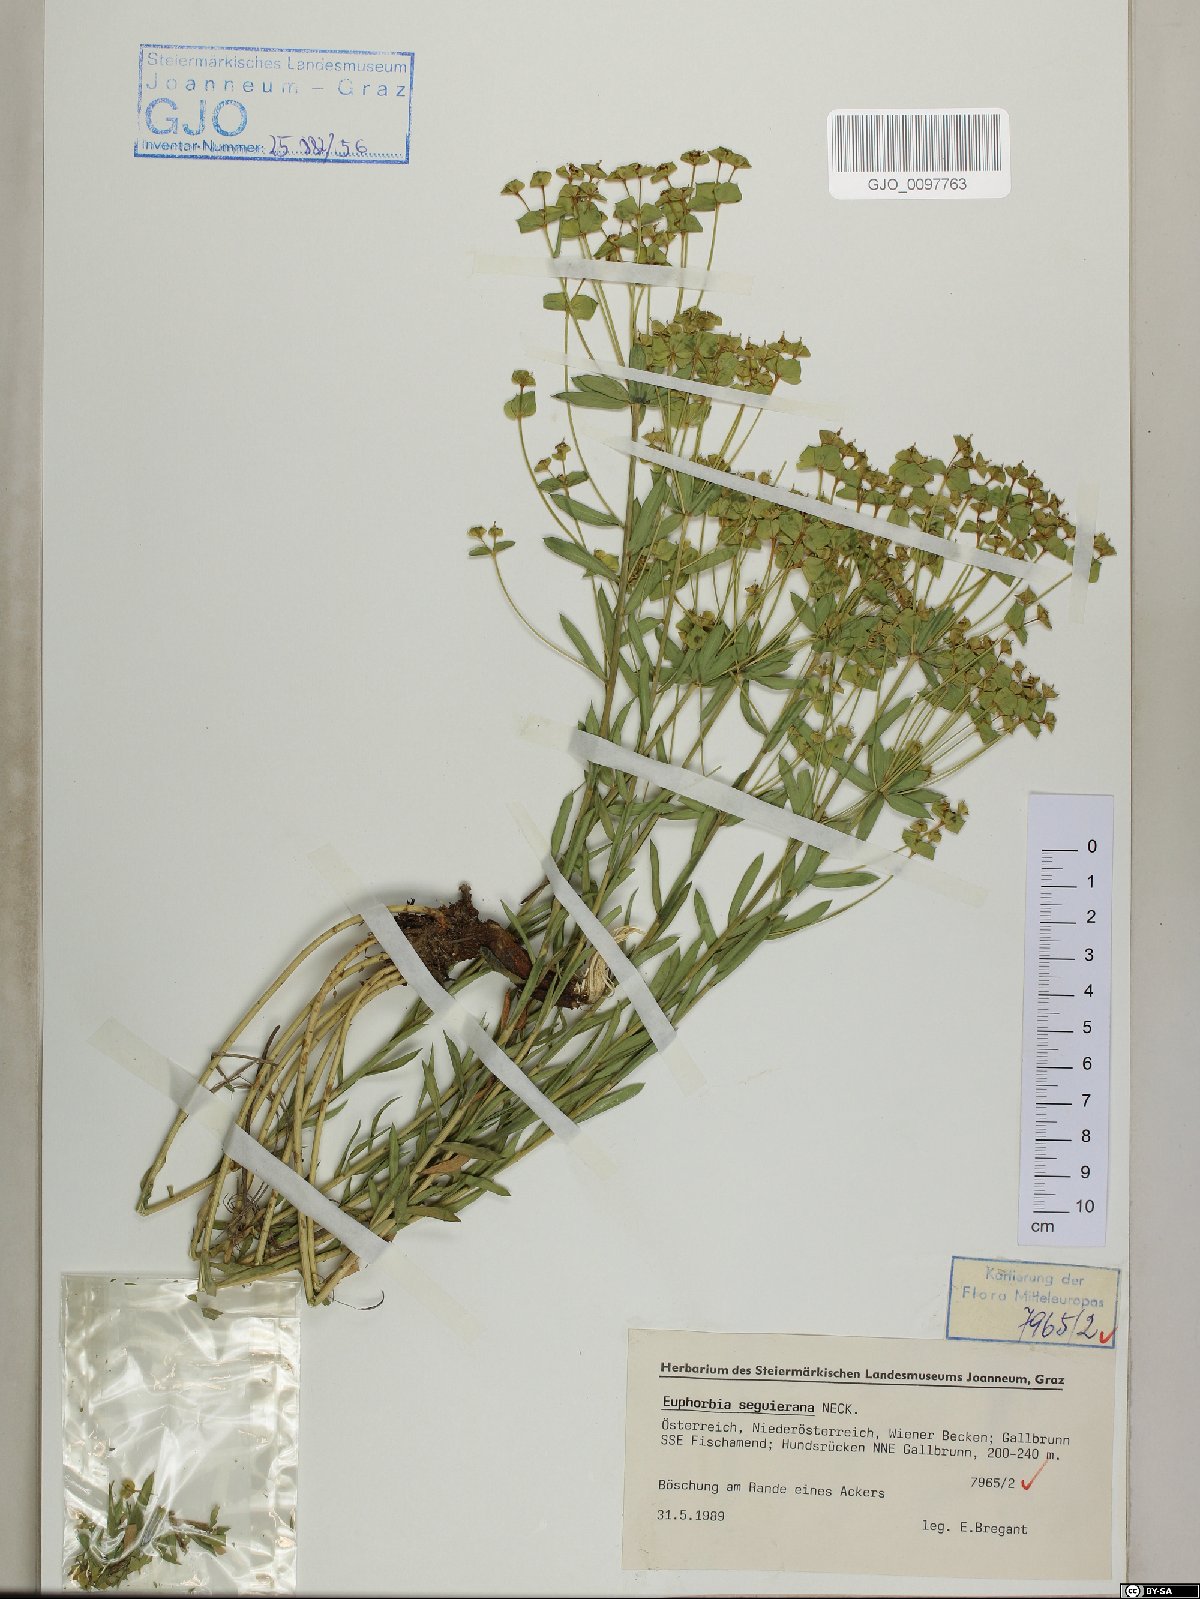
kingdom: Plantae
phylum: Tracheophyta
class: Magnoliopsida
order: Malpighiales
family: Euphorbiaceae
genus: Euphorbia
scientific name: Euphorbia seguieriana
